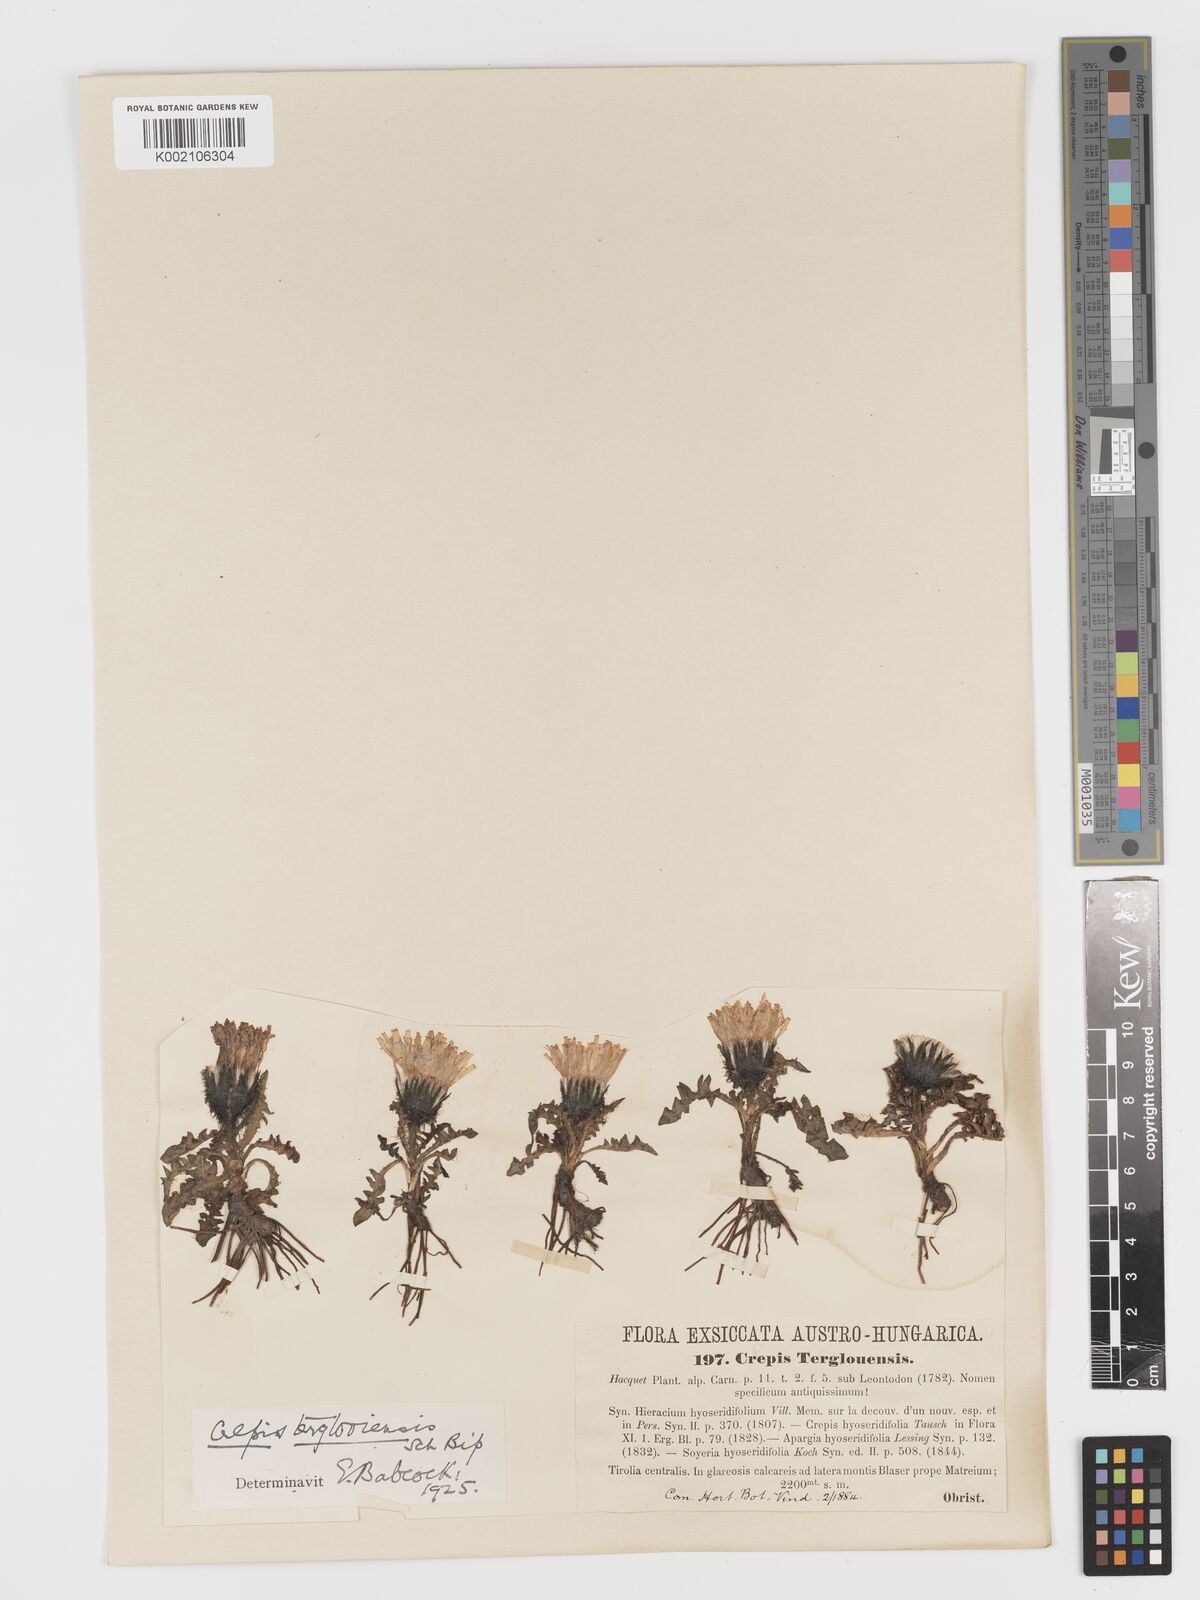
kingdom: Plantae
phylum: Tracheophyta
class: Magnoliopsida
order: Asterales
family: Asteraceae
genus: Crepis
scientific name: Crepis terglouensis
